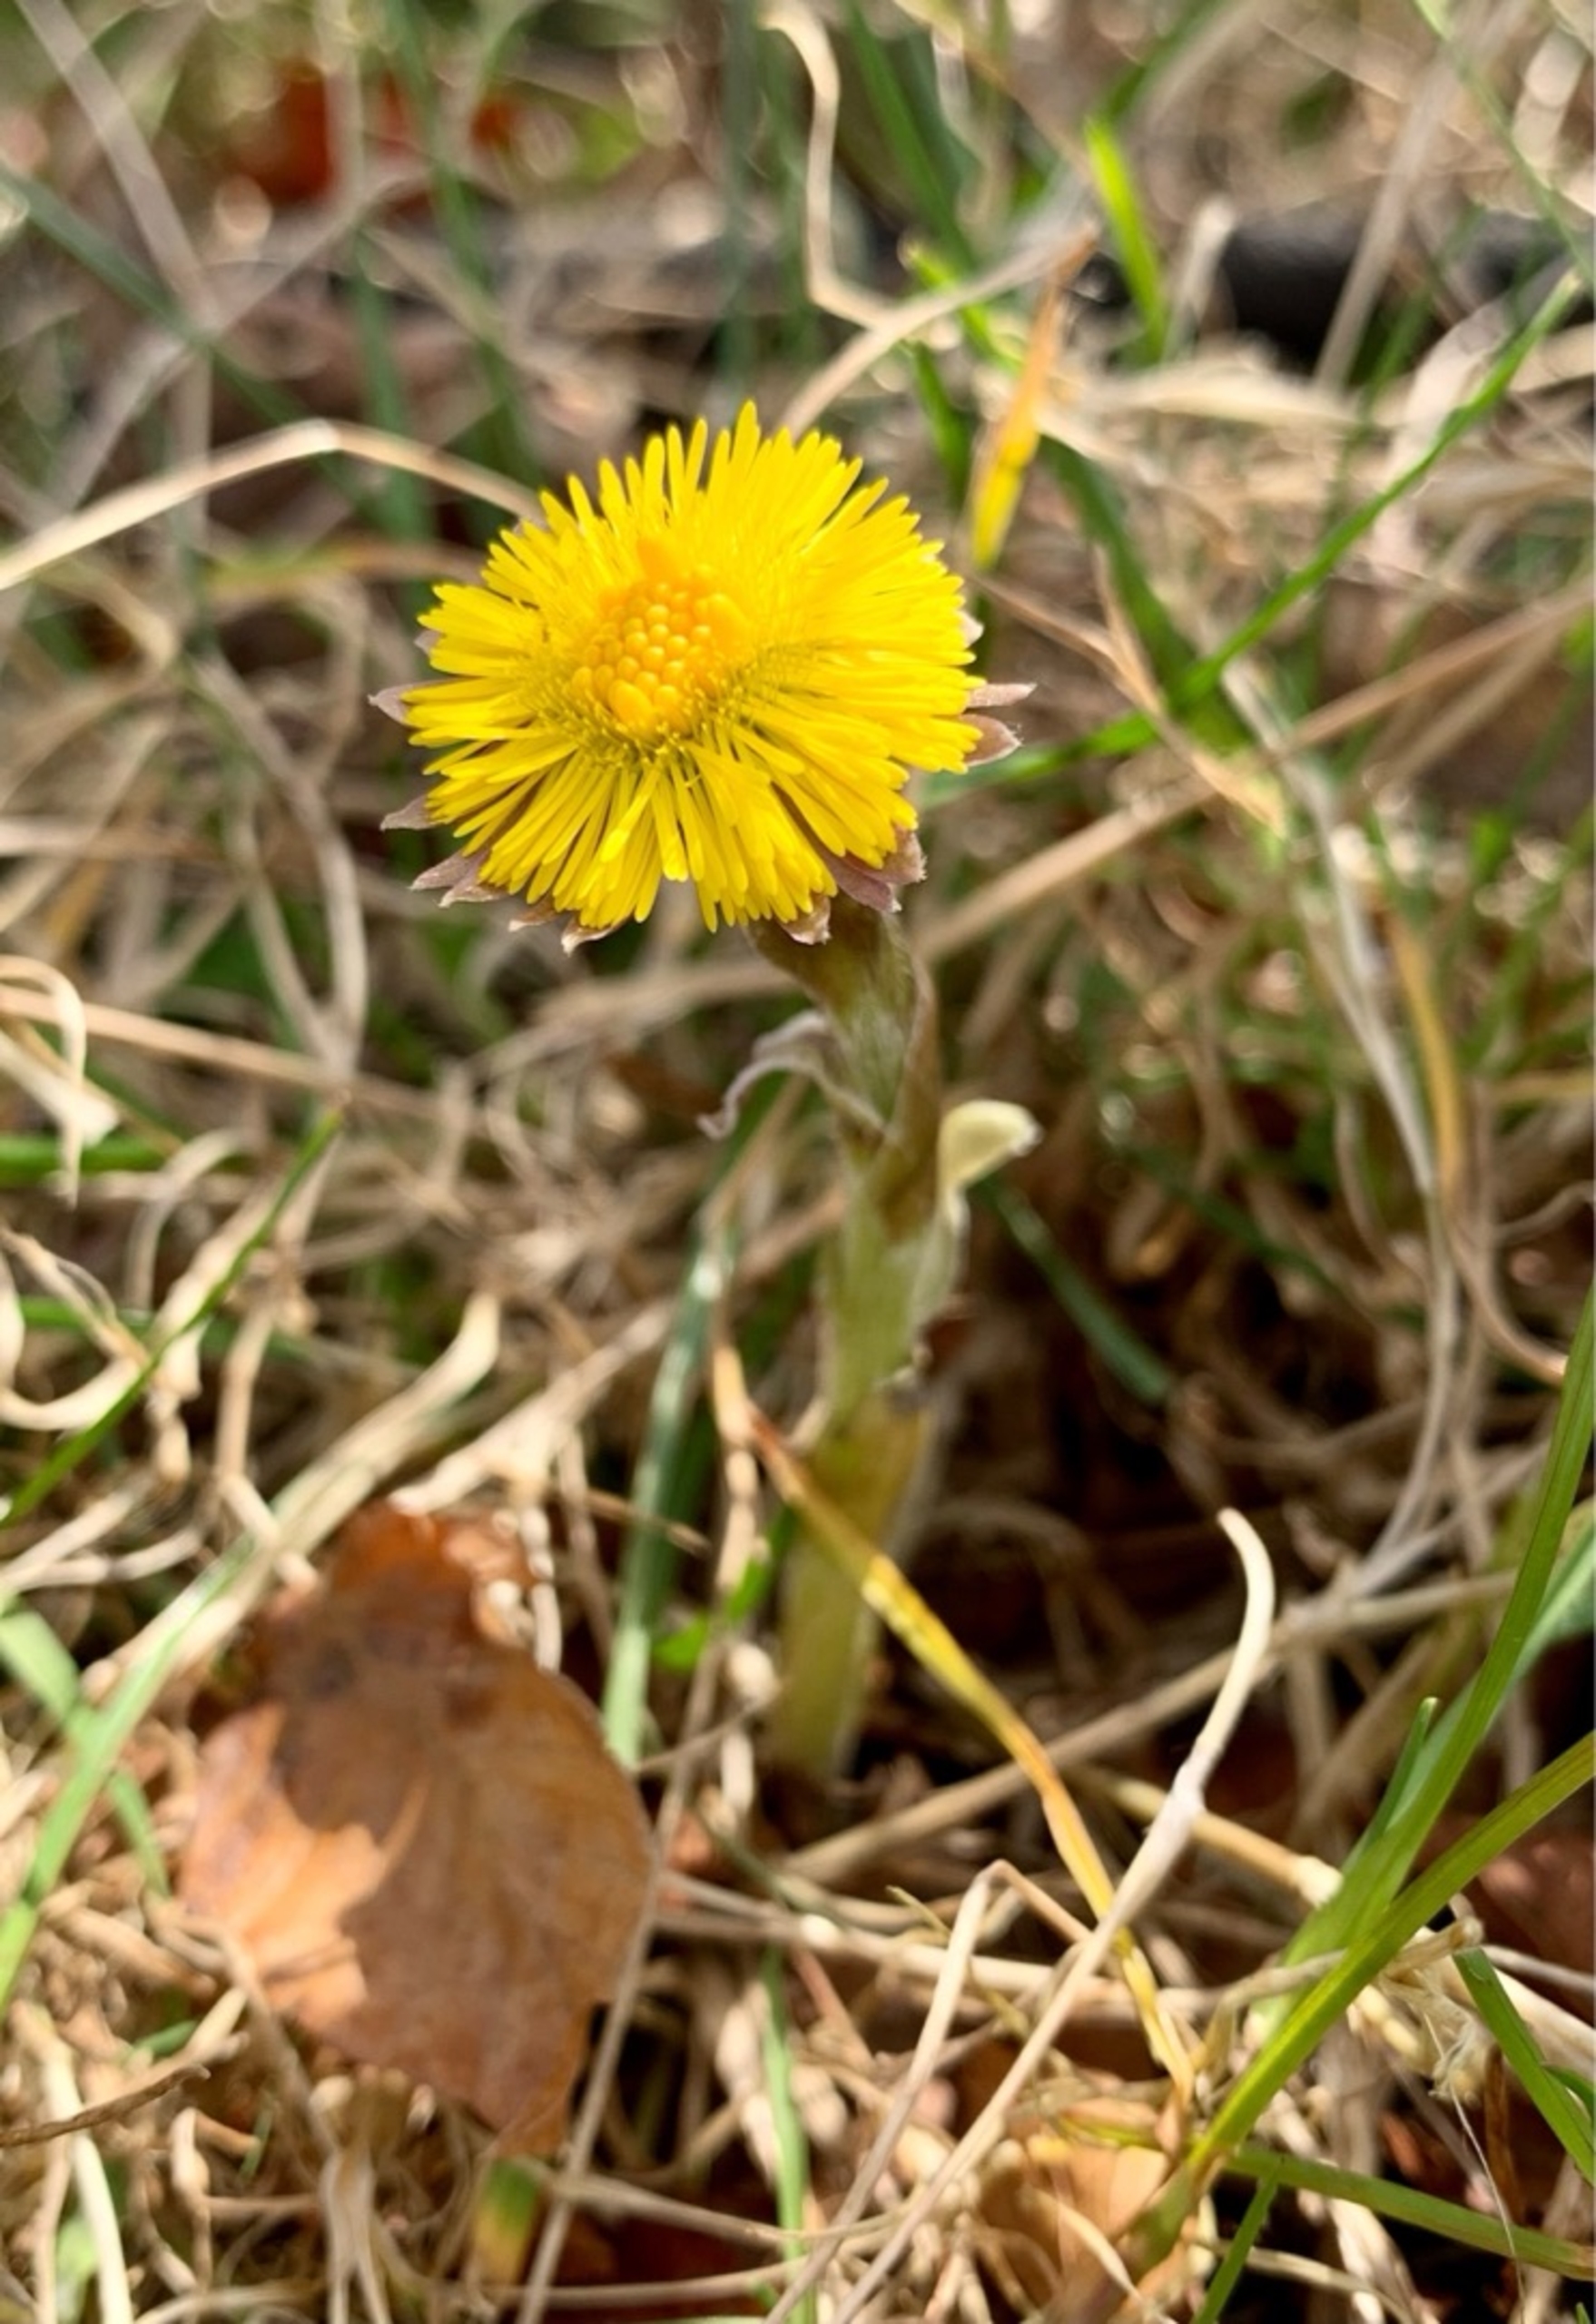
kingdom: Plantae
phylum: Tracheophyta
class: Magnoliopsida
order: Asterales
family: Asteraceae
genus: Tussilago
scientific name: Tussilago farfara
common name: Følfod
